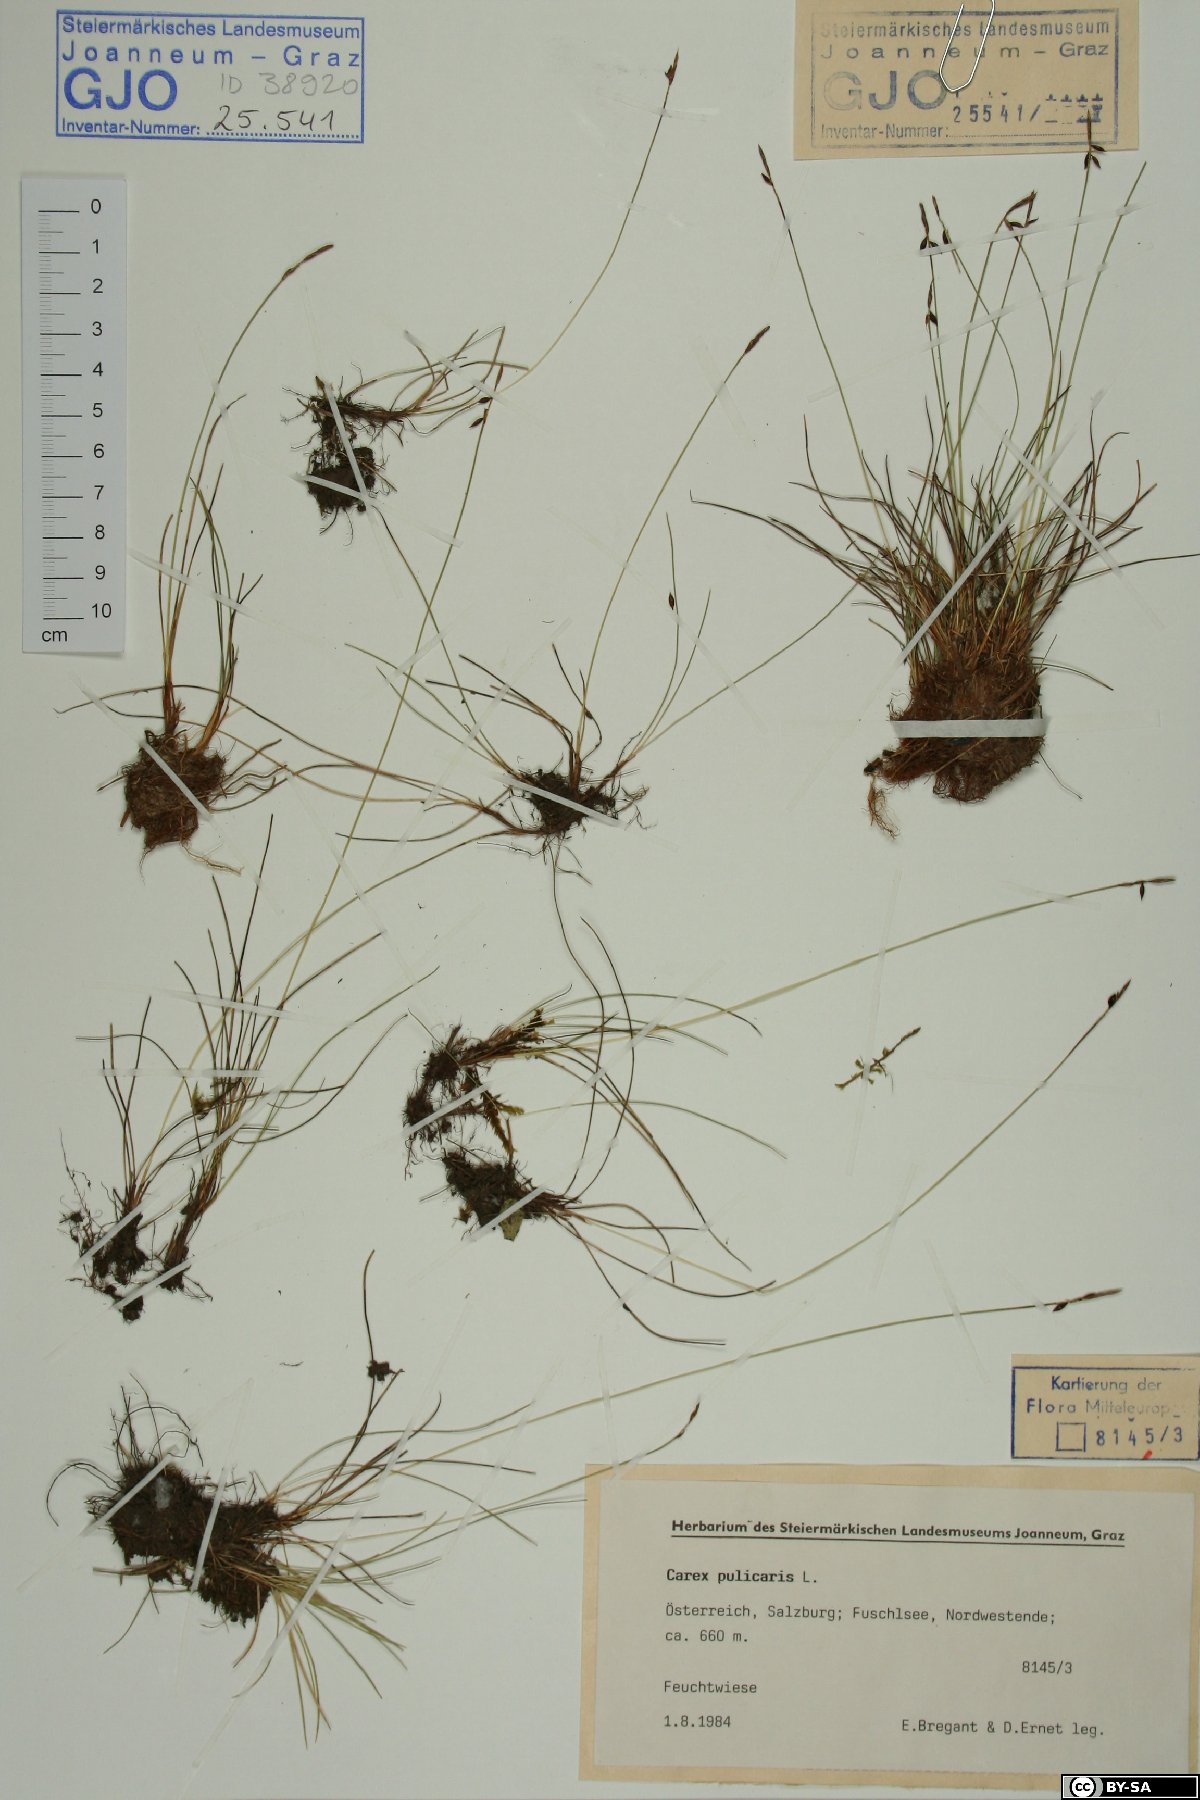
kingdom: Plantae
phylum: Tracheophyta
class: Liliopsida
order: Poales
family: Cyperaceae
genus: Carex
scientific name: Carex pulicaris
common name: Flea sedge
